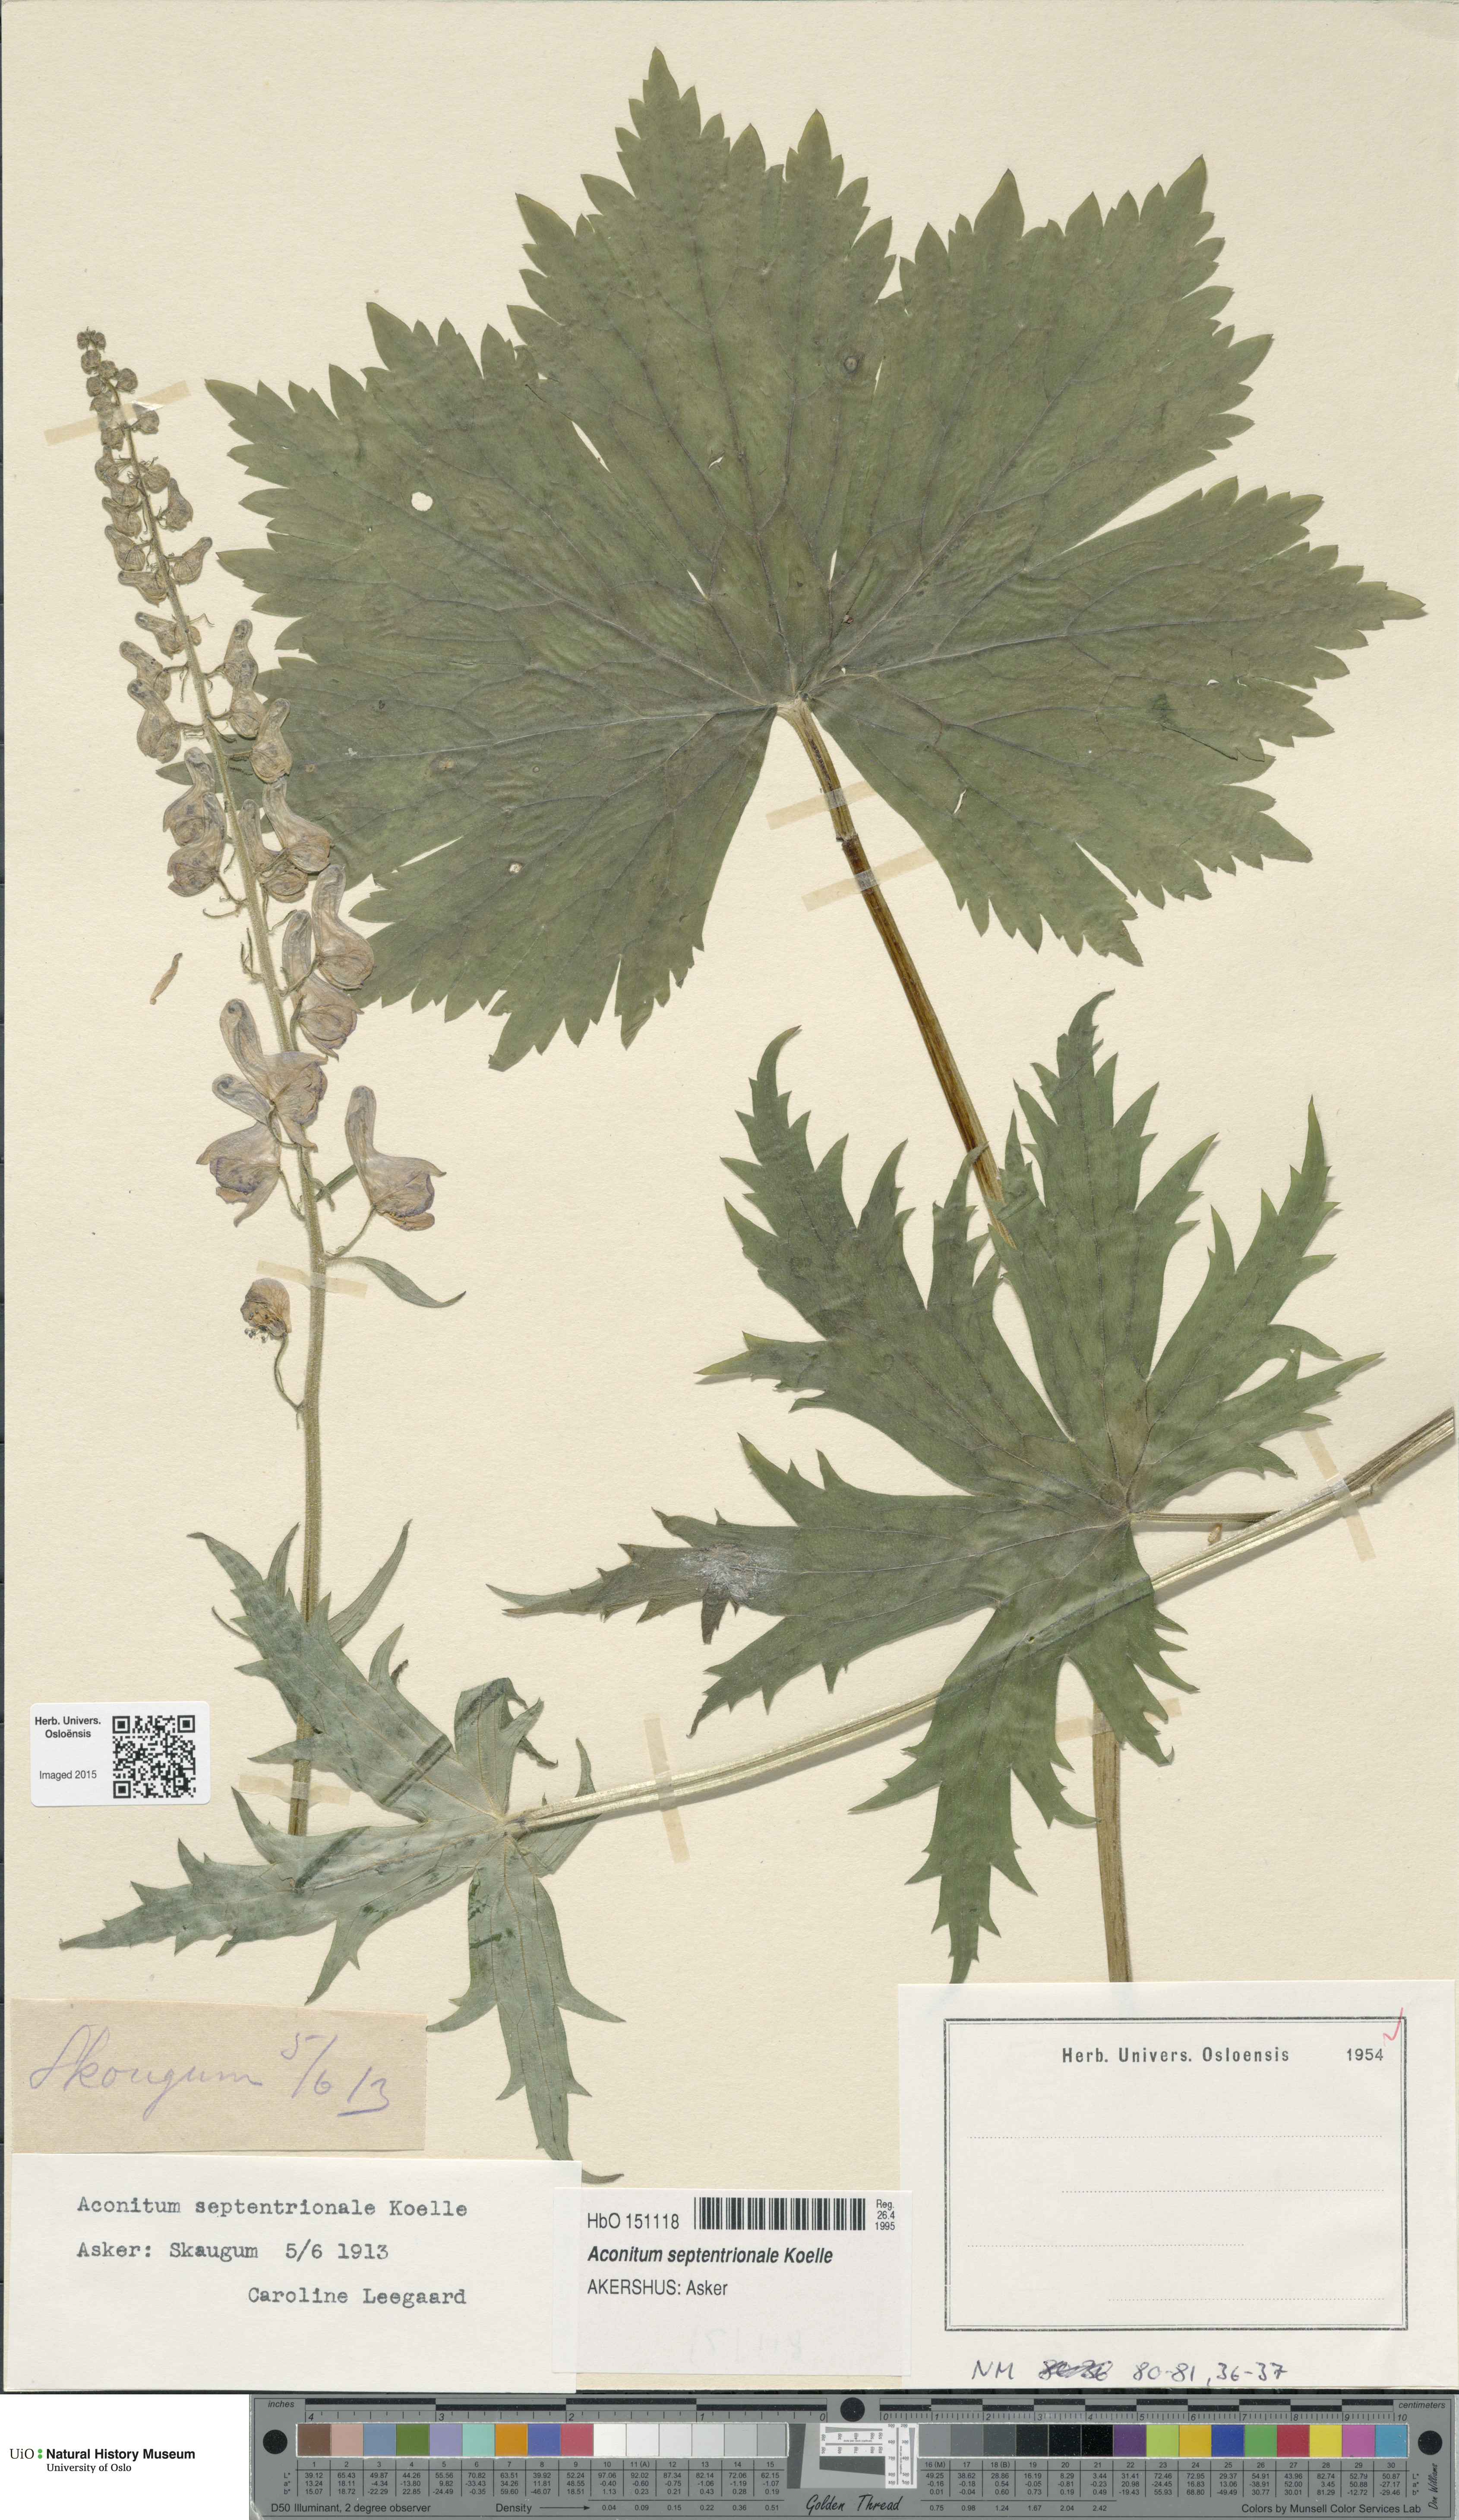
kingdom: Plantae
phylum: Tracheophyta
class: Magnoliopsida
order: Ranunculales
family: Ranunculaceae
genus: Aconitum
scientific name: Aconitum septentrionale
